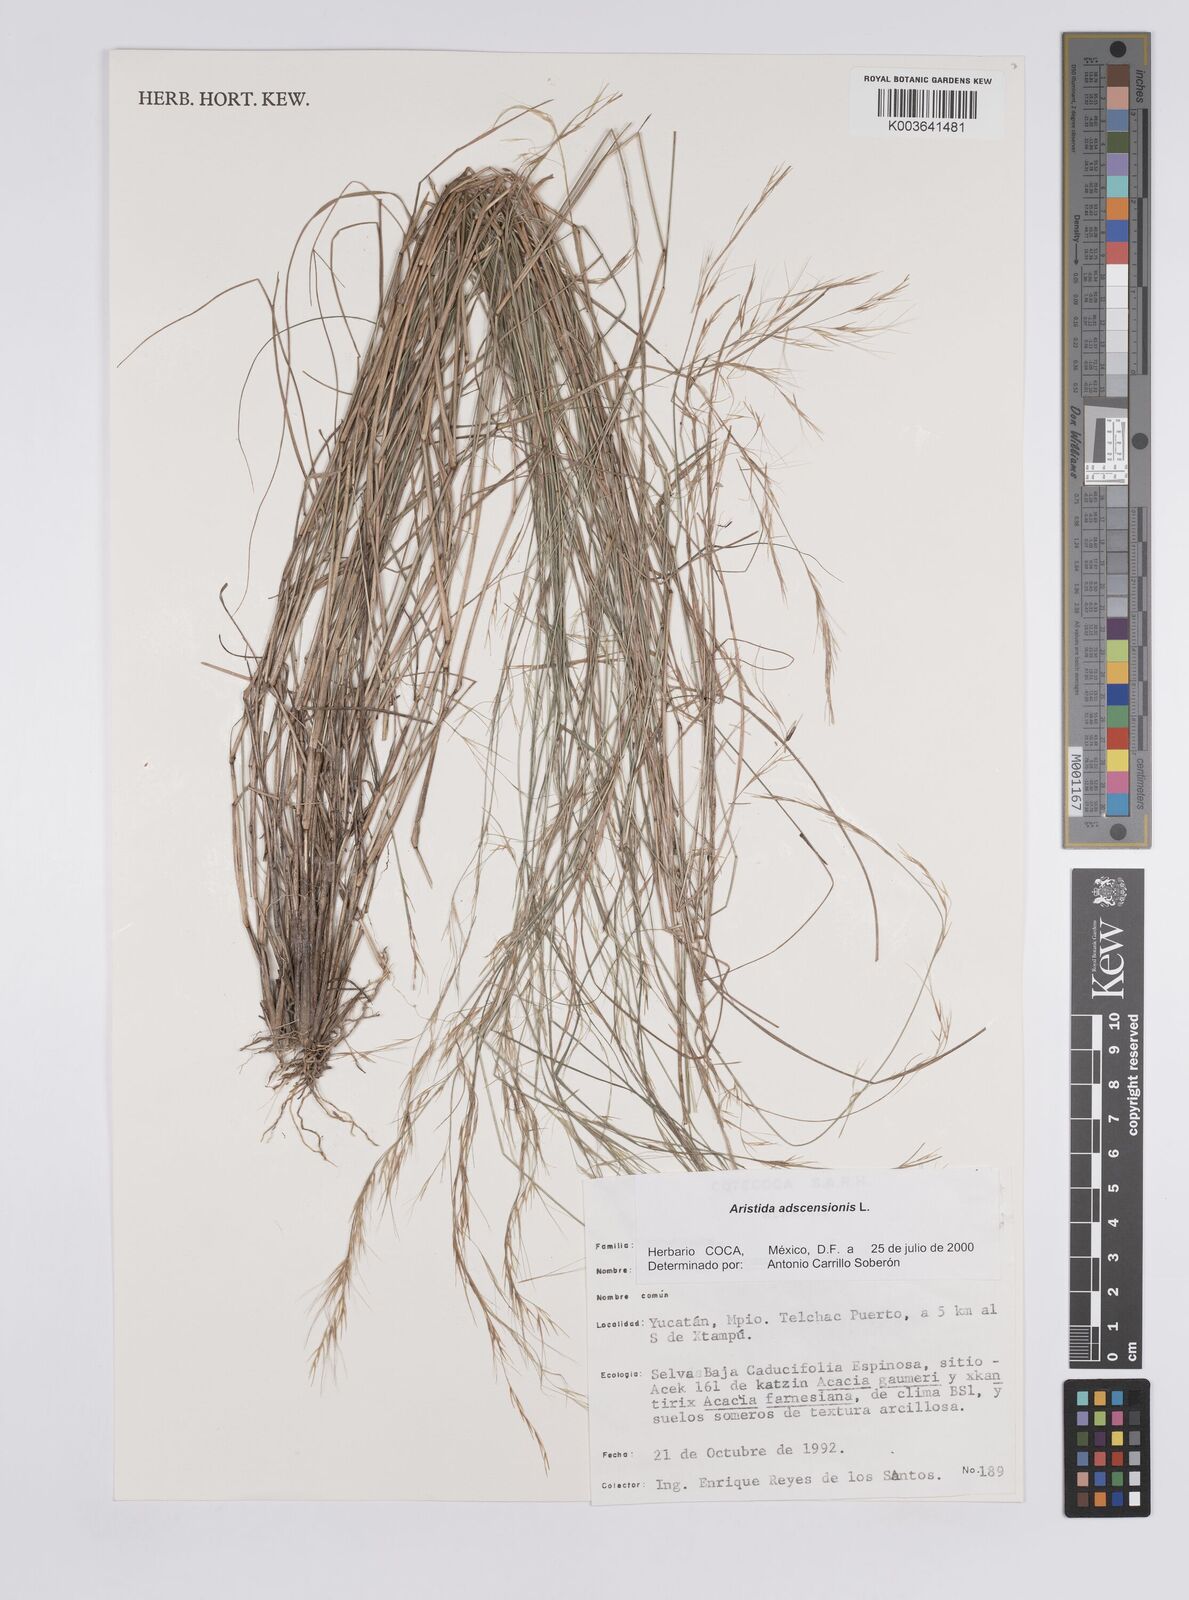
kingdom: Plantae
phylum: Tracheophyta
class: Liliopsida
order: Poales
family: Poaceae
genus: Aristida
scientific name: Aristida adscensionis
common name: Sixweeks threeawn
